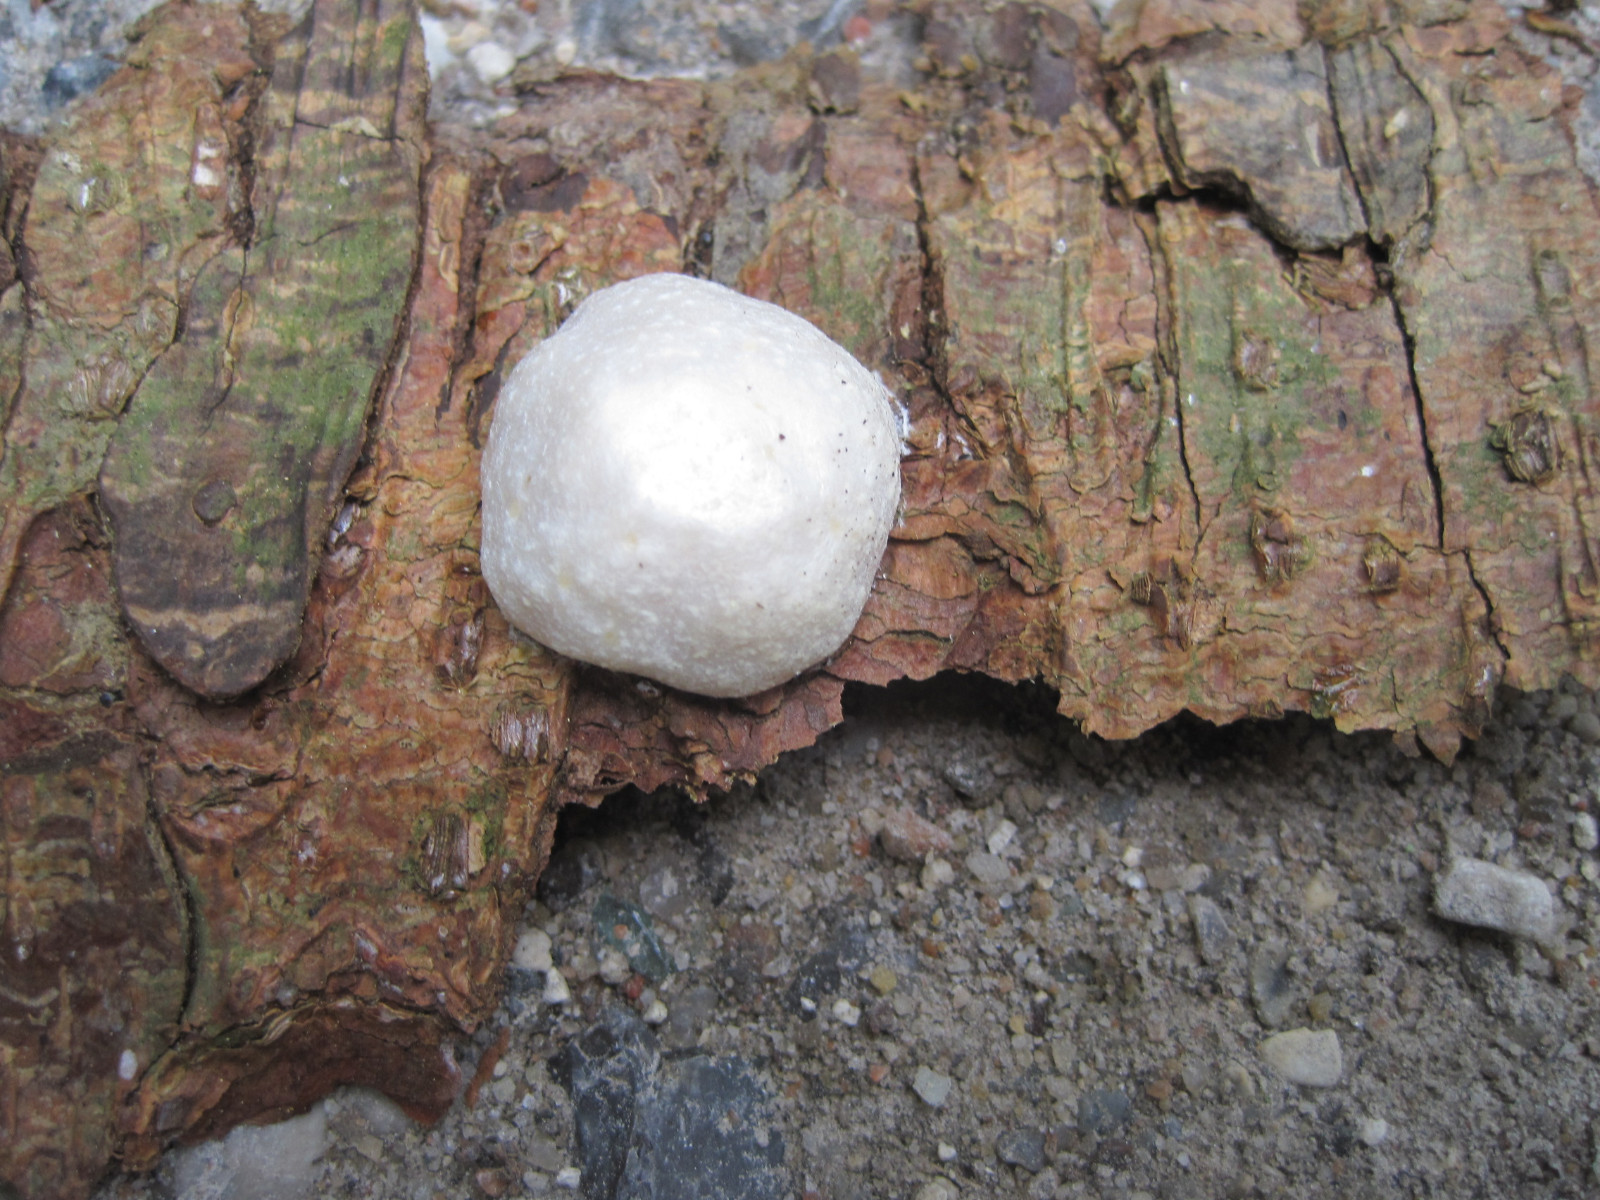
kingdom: Protozoa
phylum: Mycetozoa
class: Myxomycetes
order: Cribrariales
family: Tubiferaceae
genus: Reticularia
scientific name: Reticularia lycoperdon
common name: skinnende støvpude
